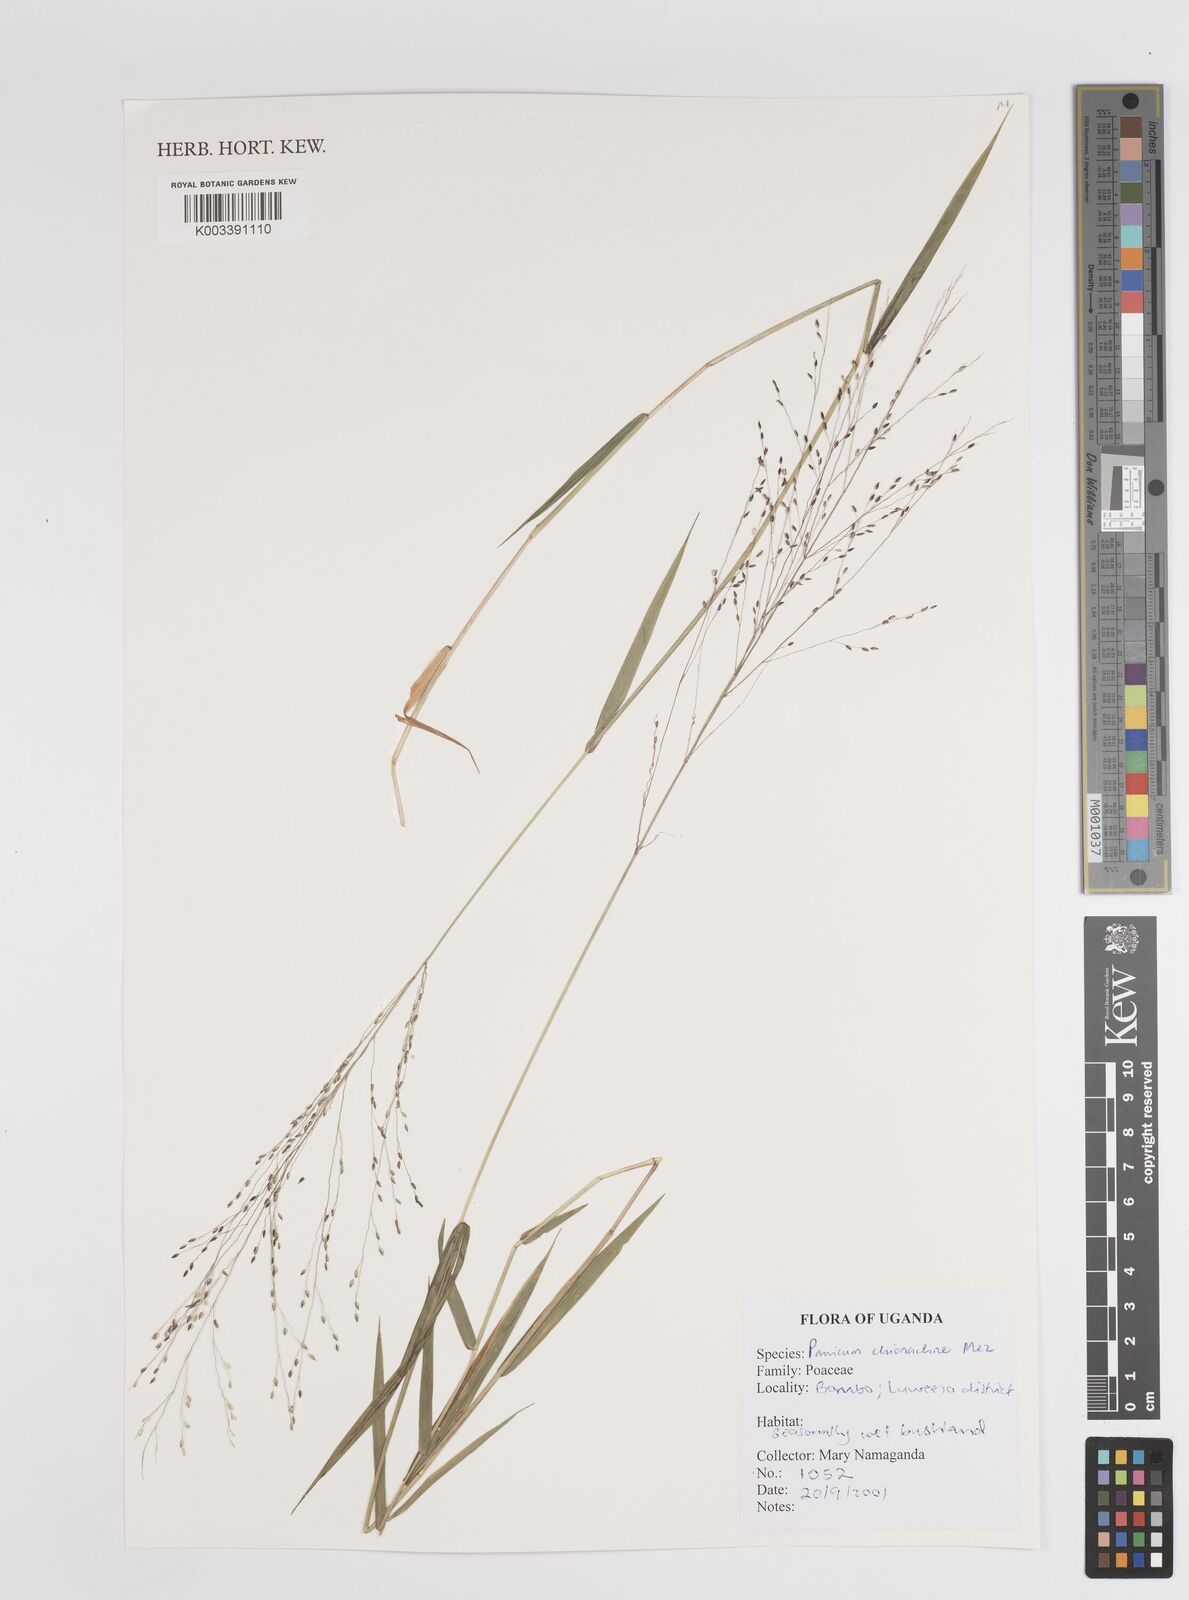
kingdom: Plantae
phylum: Tracheophyta
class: Liliopsida
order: Poales
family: Poaceae
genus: Panicum
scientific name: Panicum chionachne
